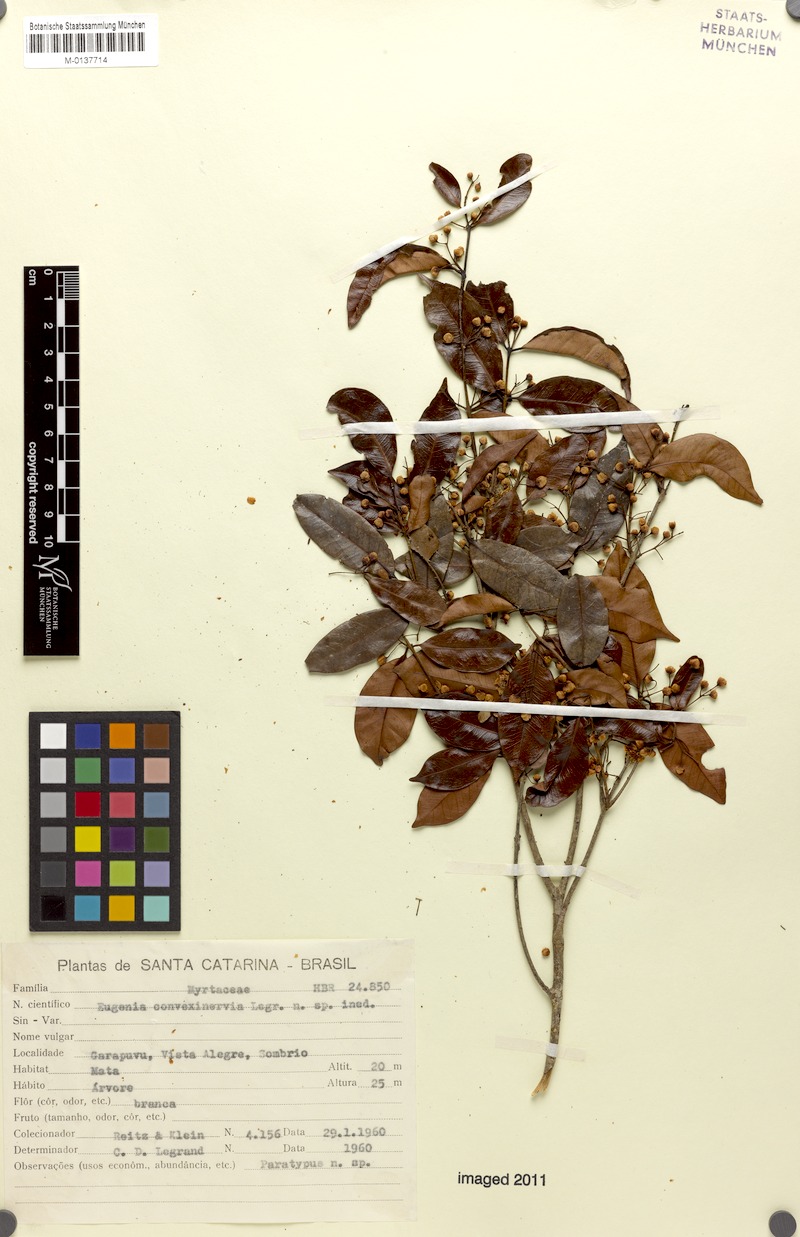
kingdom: Plantae
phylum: Tracheophyta
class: Magnoliopsida
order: Myrtales
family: Myrtaceae
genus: Eugenia
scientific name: Eugenia convexinervia
